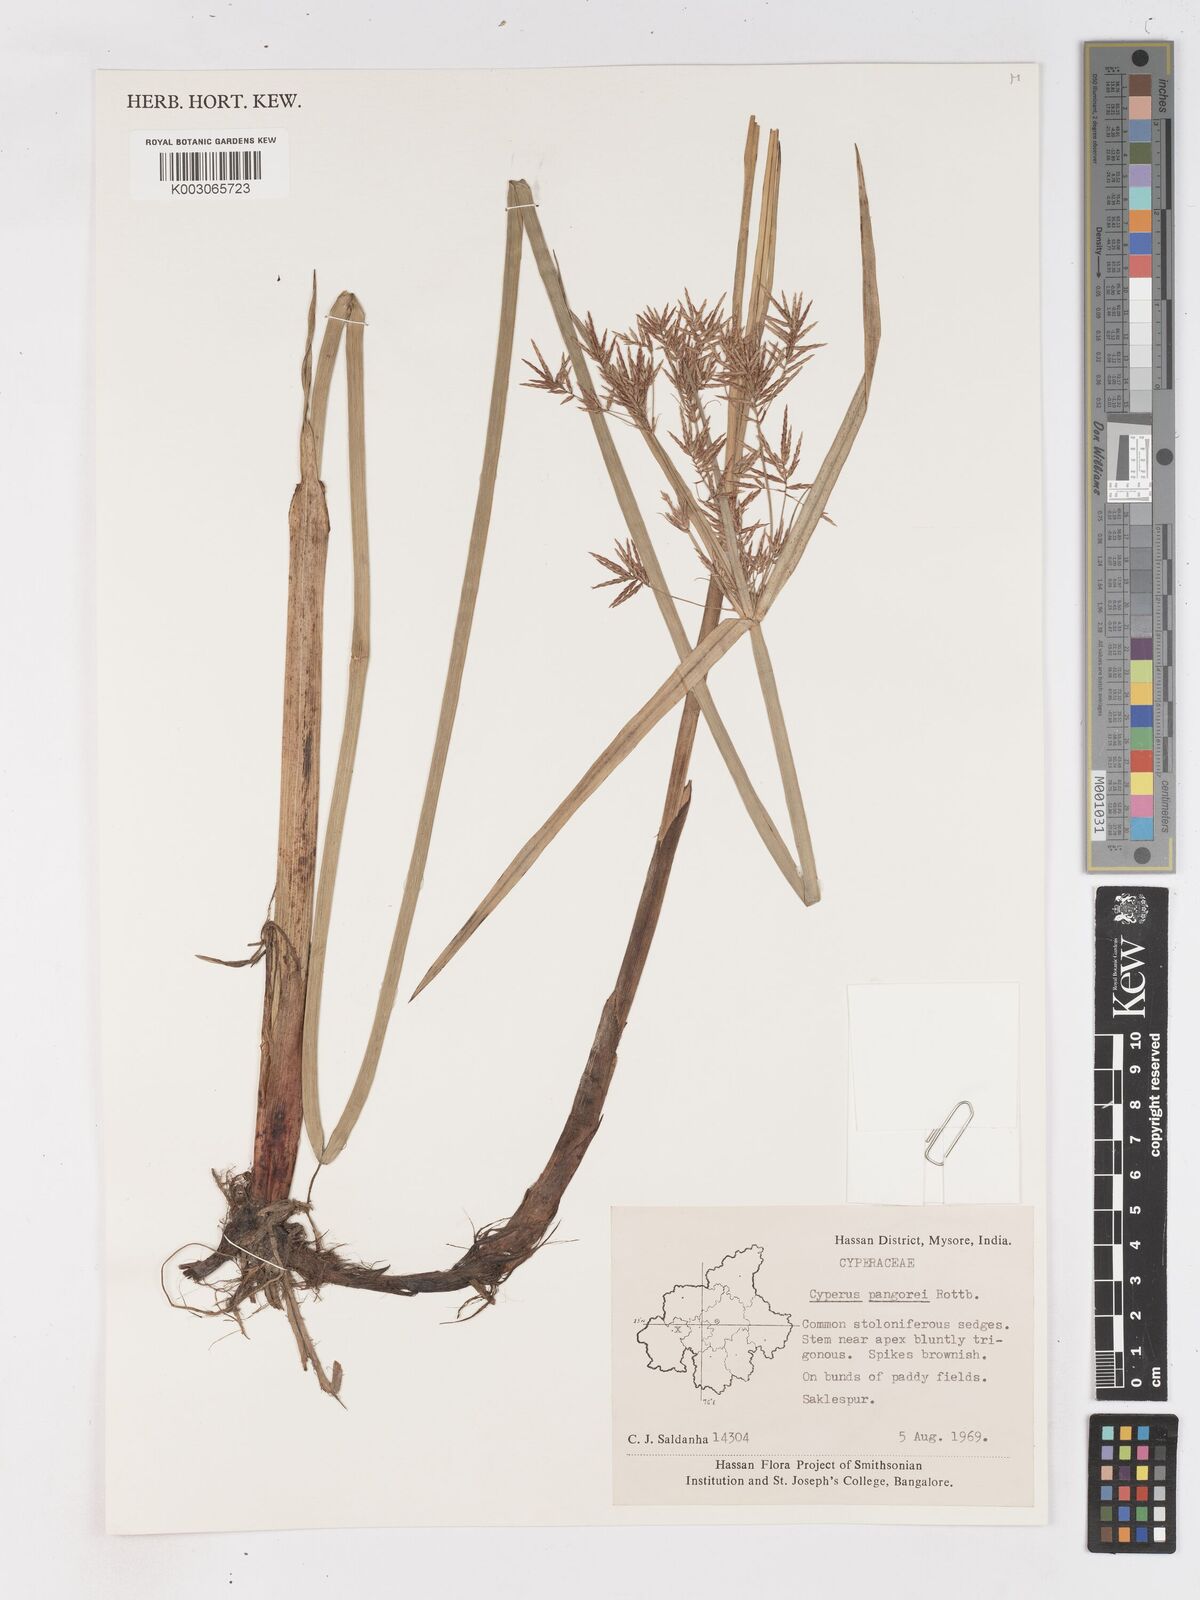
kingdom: Plantae
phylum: Tracheophyta
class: Liliopsida
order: Poales
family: Cyperaceae
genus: Cyperus
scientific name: Cyperus pangorei
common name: Mat sedge
